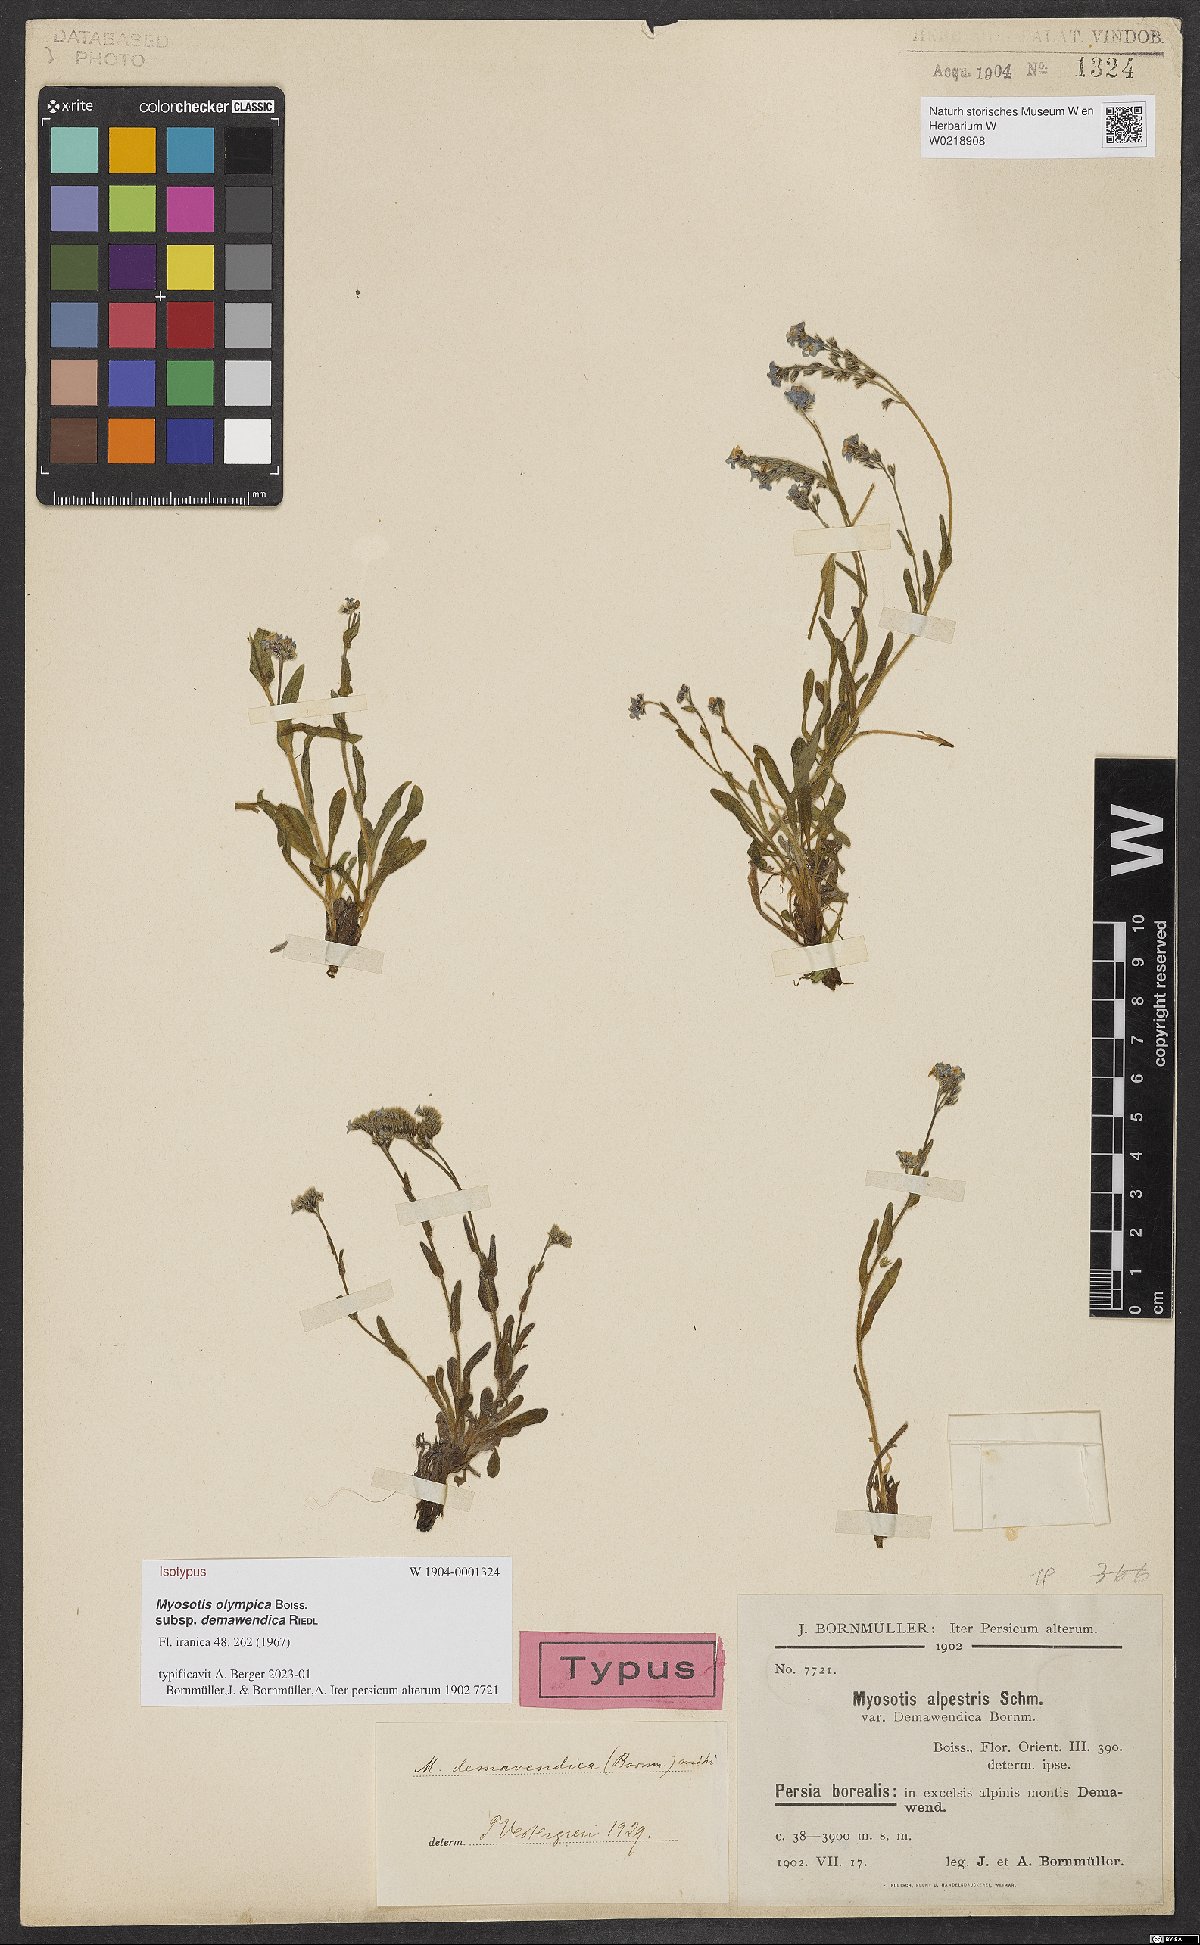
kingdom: Plantae
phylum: Tracheophyta
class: Magnoliopsida
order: Boraginales
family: Boraginaceae
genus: Myosotis
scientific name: Myosotis olympica
